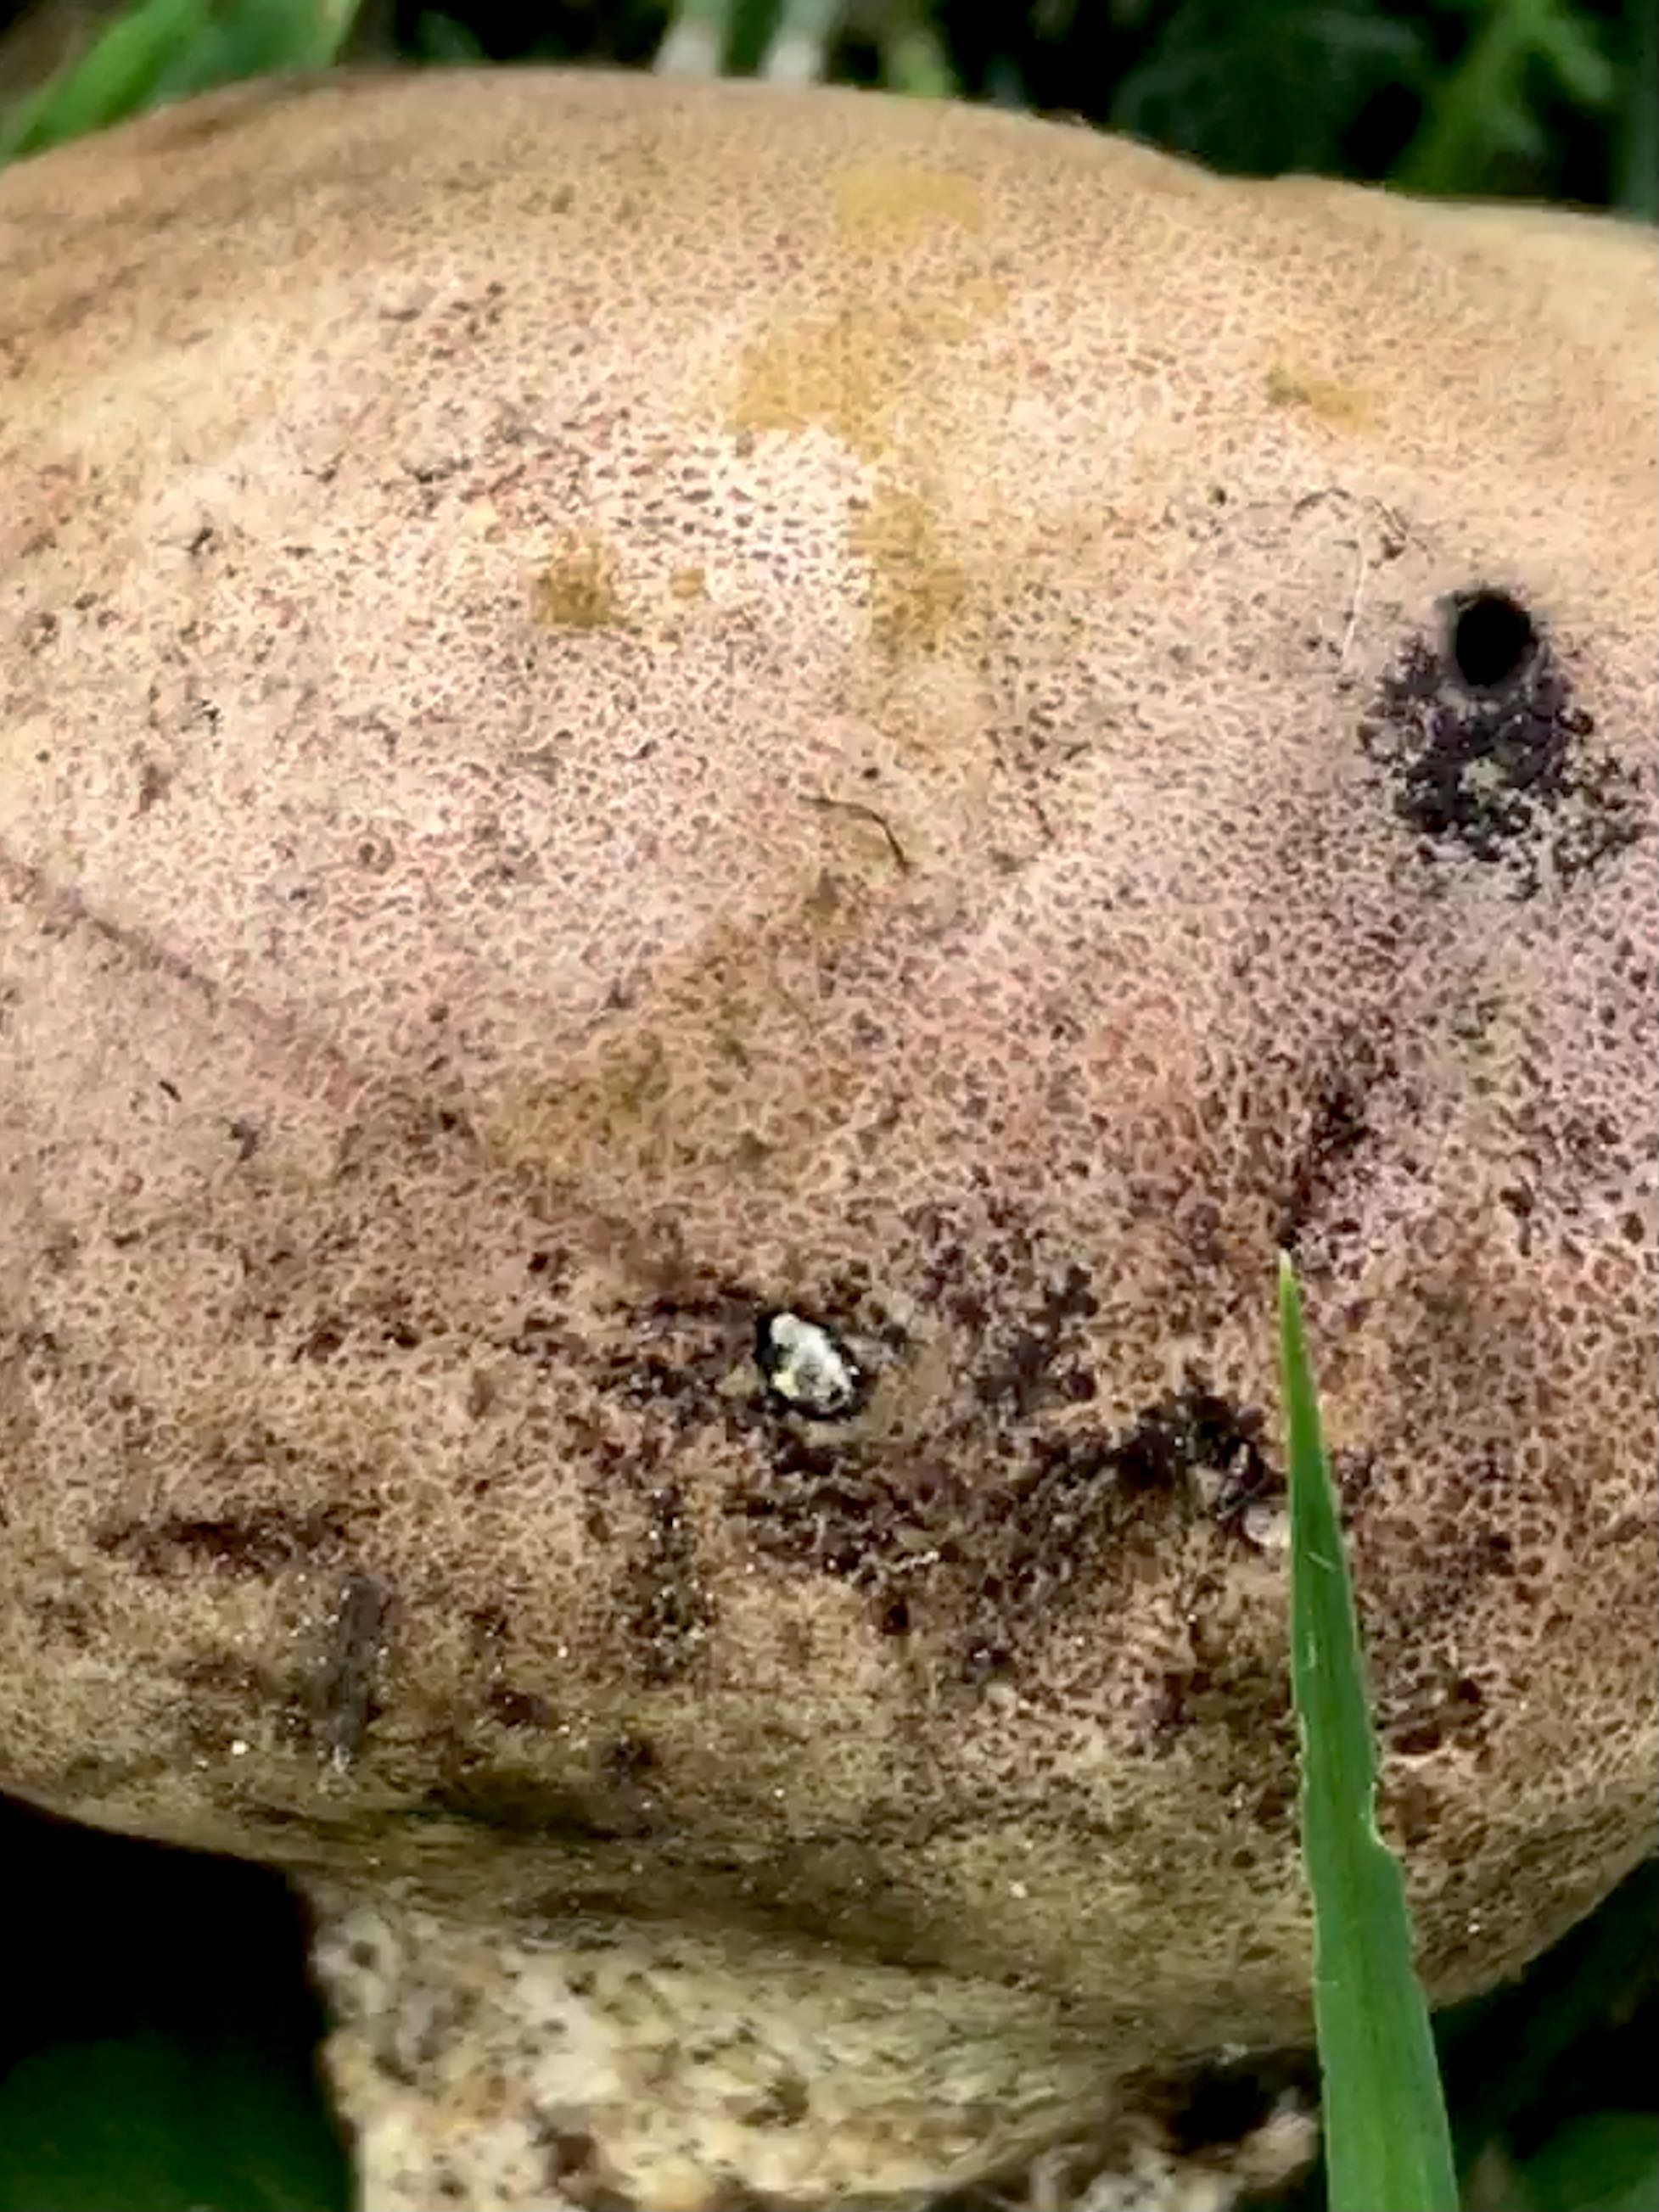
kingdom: Fungi
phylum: Basidiomycota
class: Agaricomycetes
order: Boletales
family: Sclerodermataceae
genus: Scleroderma
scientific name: Scleroderma
